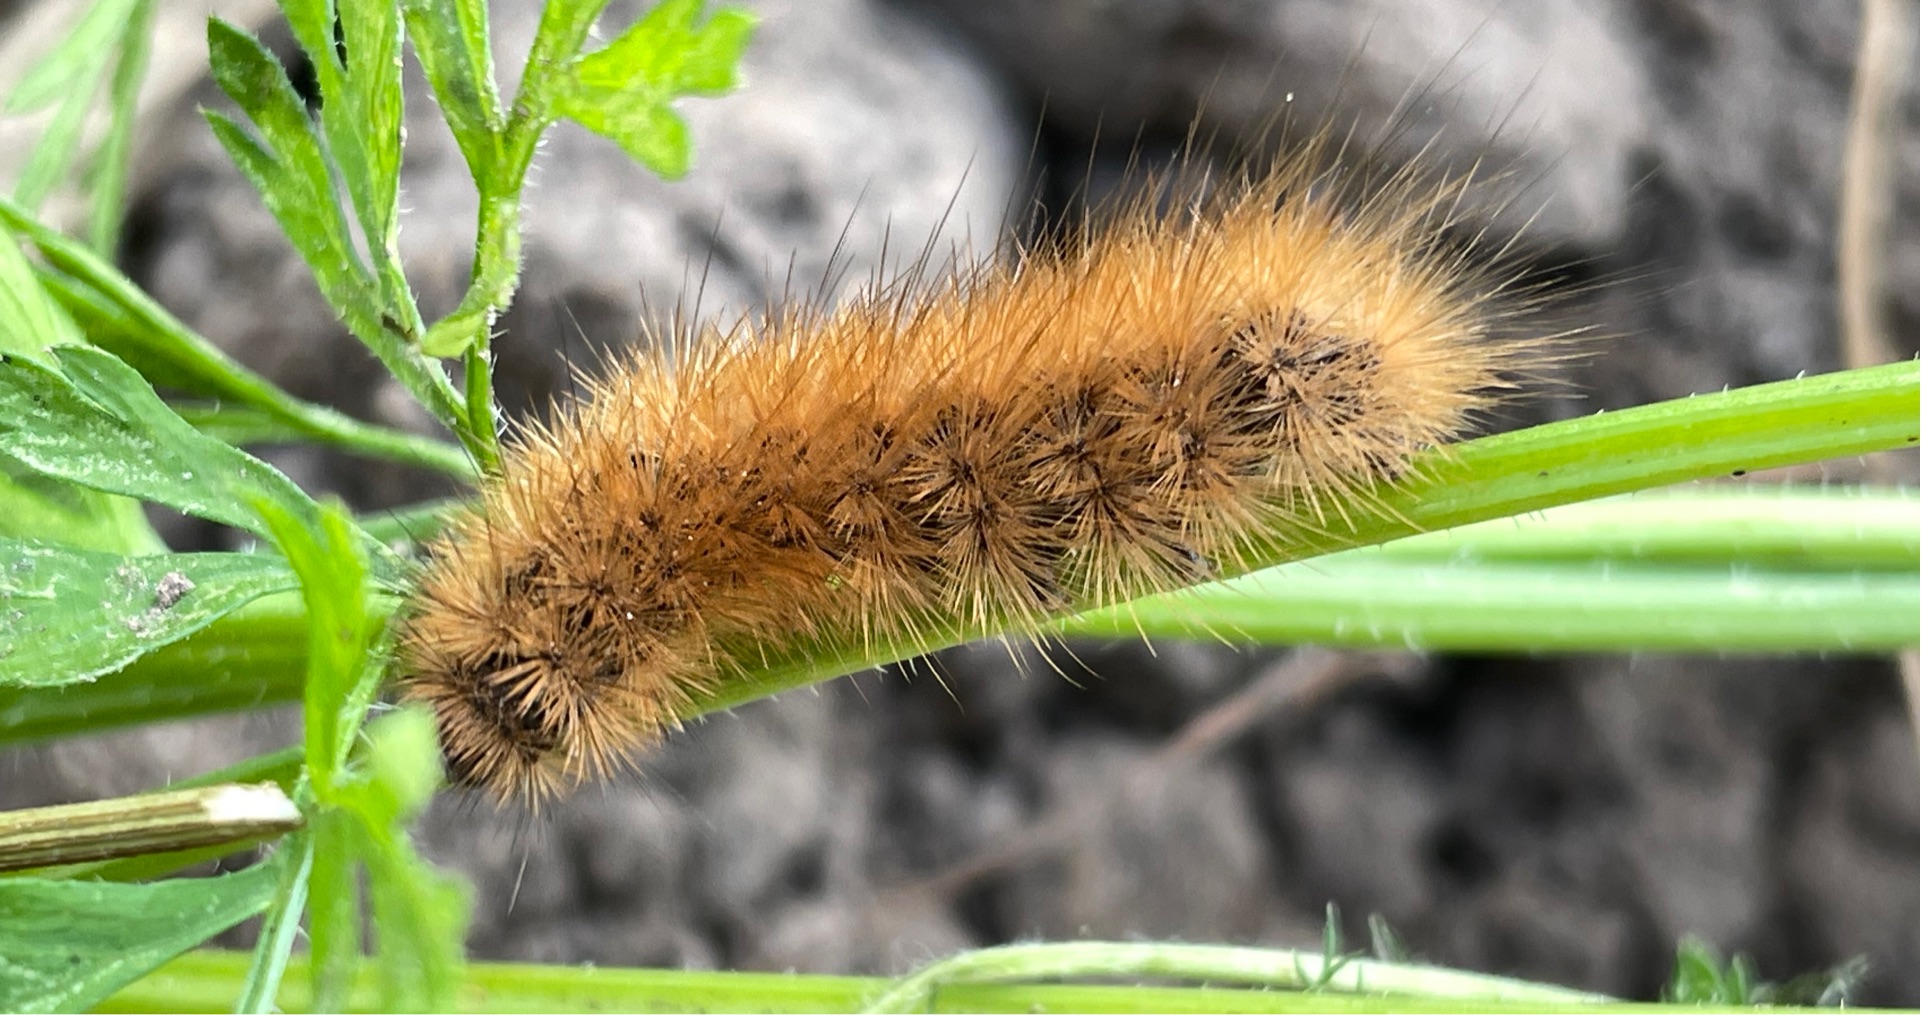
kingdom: Animalia
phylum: Arthropoda
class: Insecta
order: Lepidoptera
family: Erebidae
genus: Phragmatobia
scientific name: Phragmatobia fuliginosa
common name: Kanelbjørn
